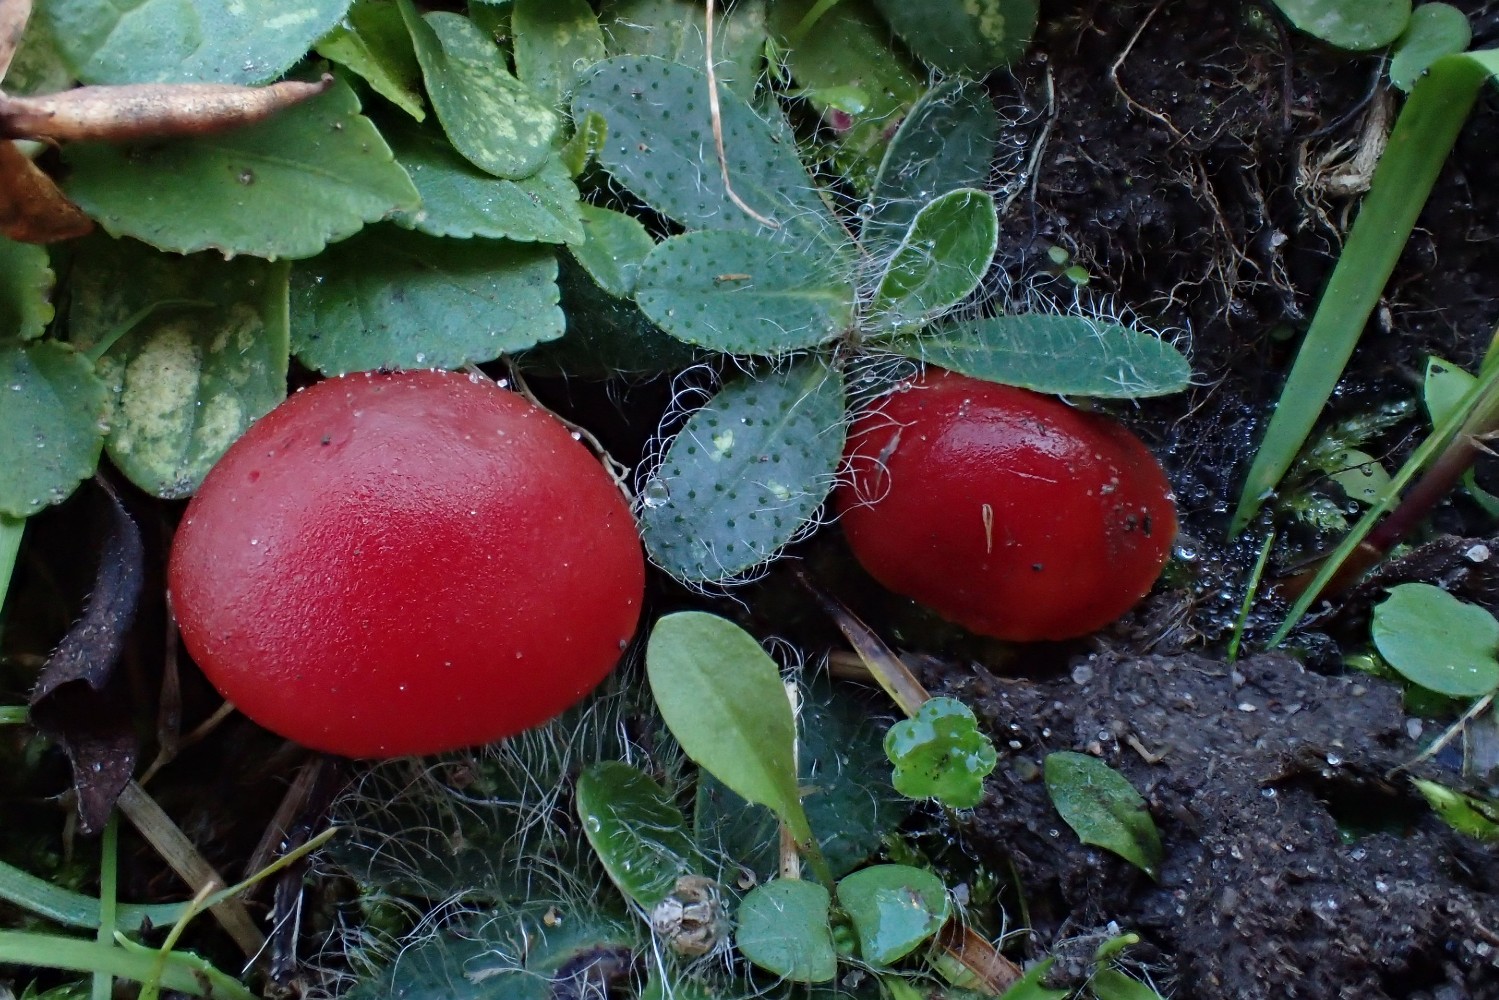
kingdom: Fungi
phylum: Basidiomycota
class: Agaricomycetes
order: Agaricales
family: Hygrophoraceae
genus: Hygrocybe
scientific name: Hygrocybe coccinea
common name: cinnober-vokshat
